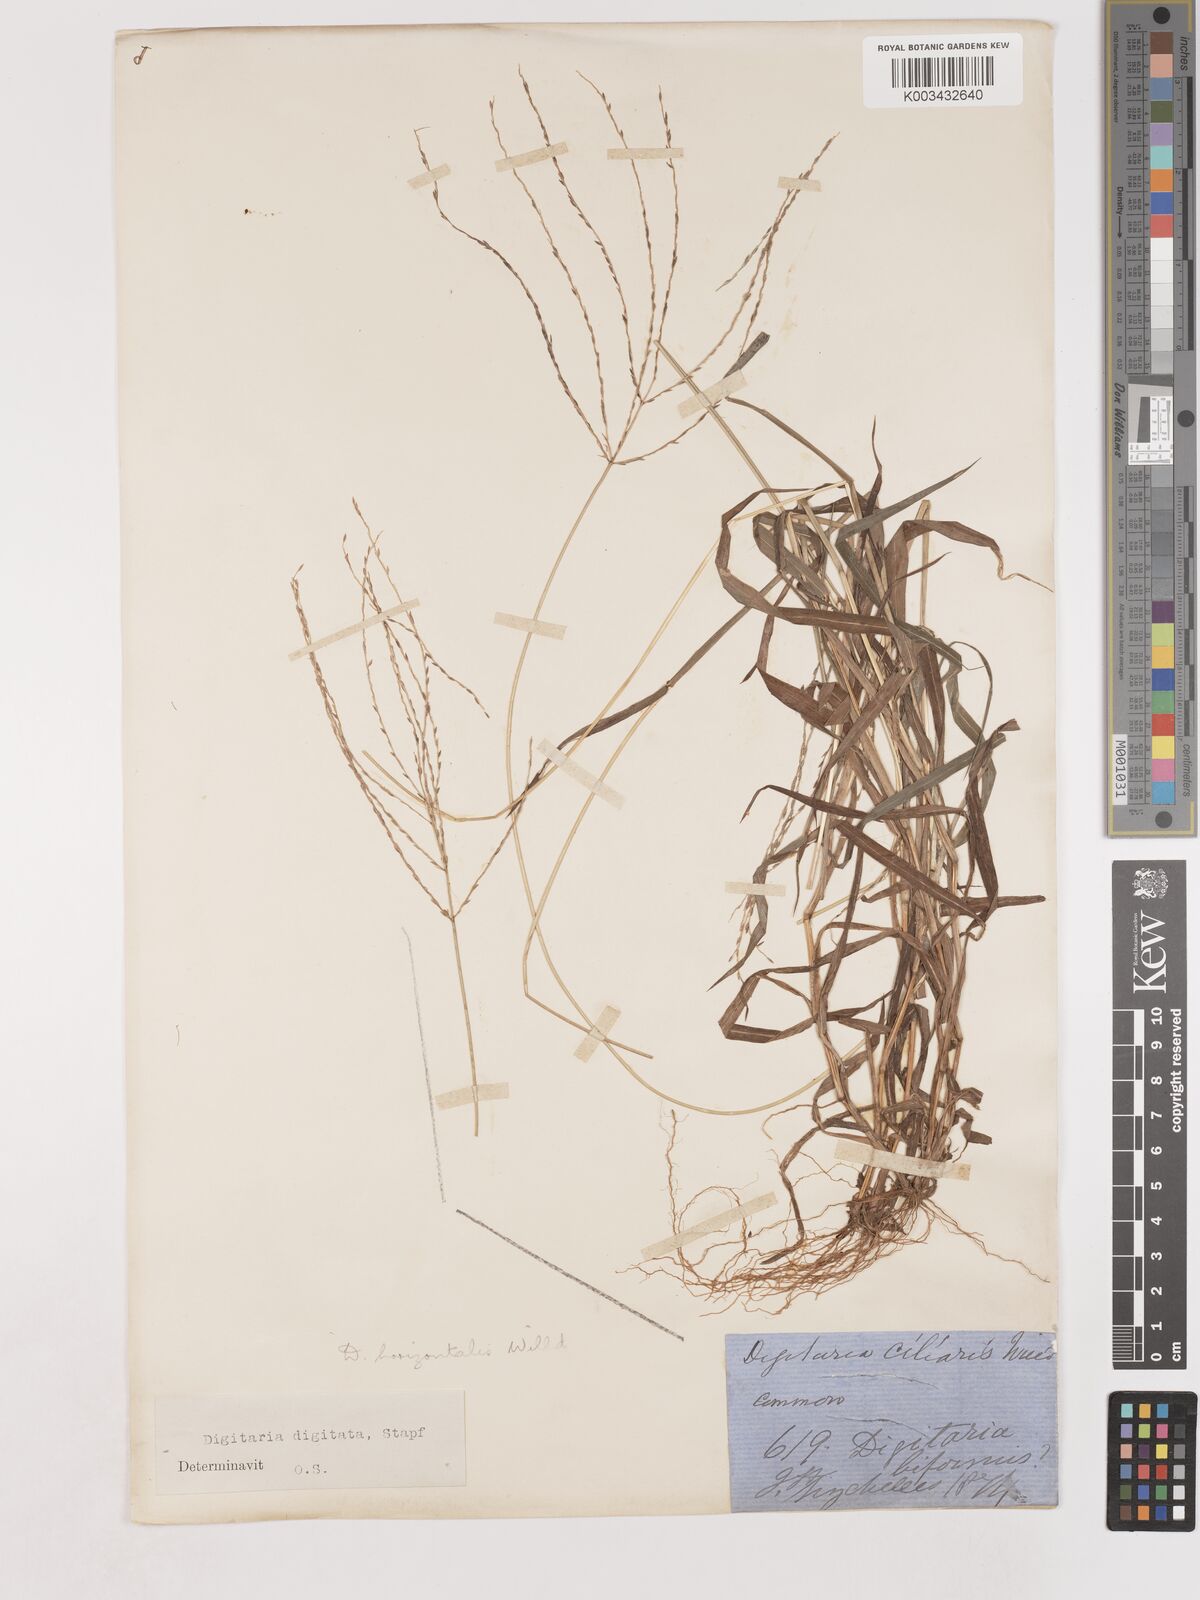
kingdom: Plantae
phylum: Tracheophyta
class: Liliopsida
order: Poales
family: Poaceae
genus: Digitaria
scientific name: Digitaria horizontalis
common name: Jamaican crabgrass
